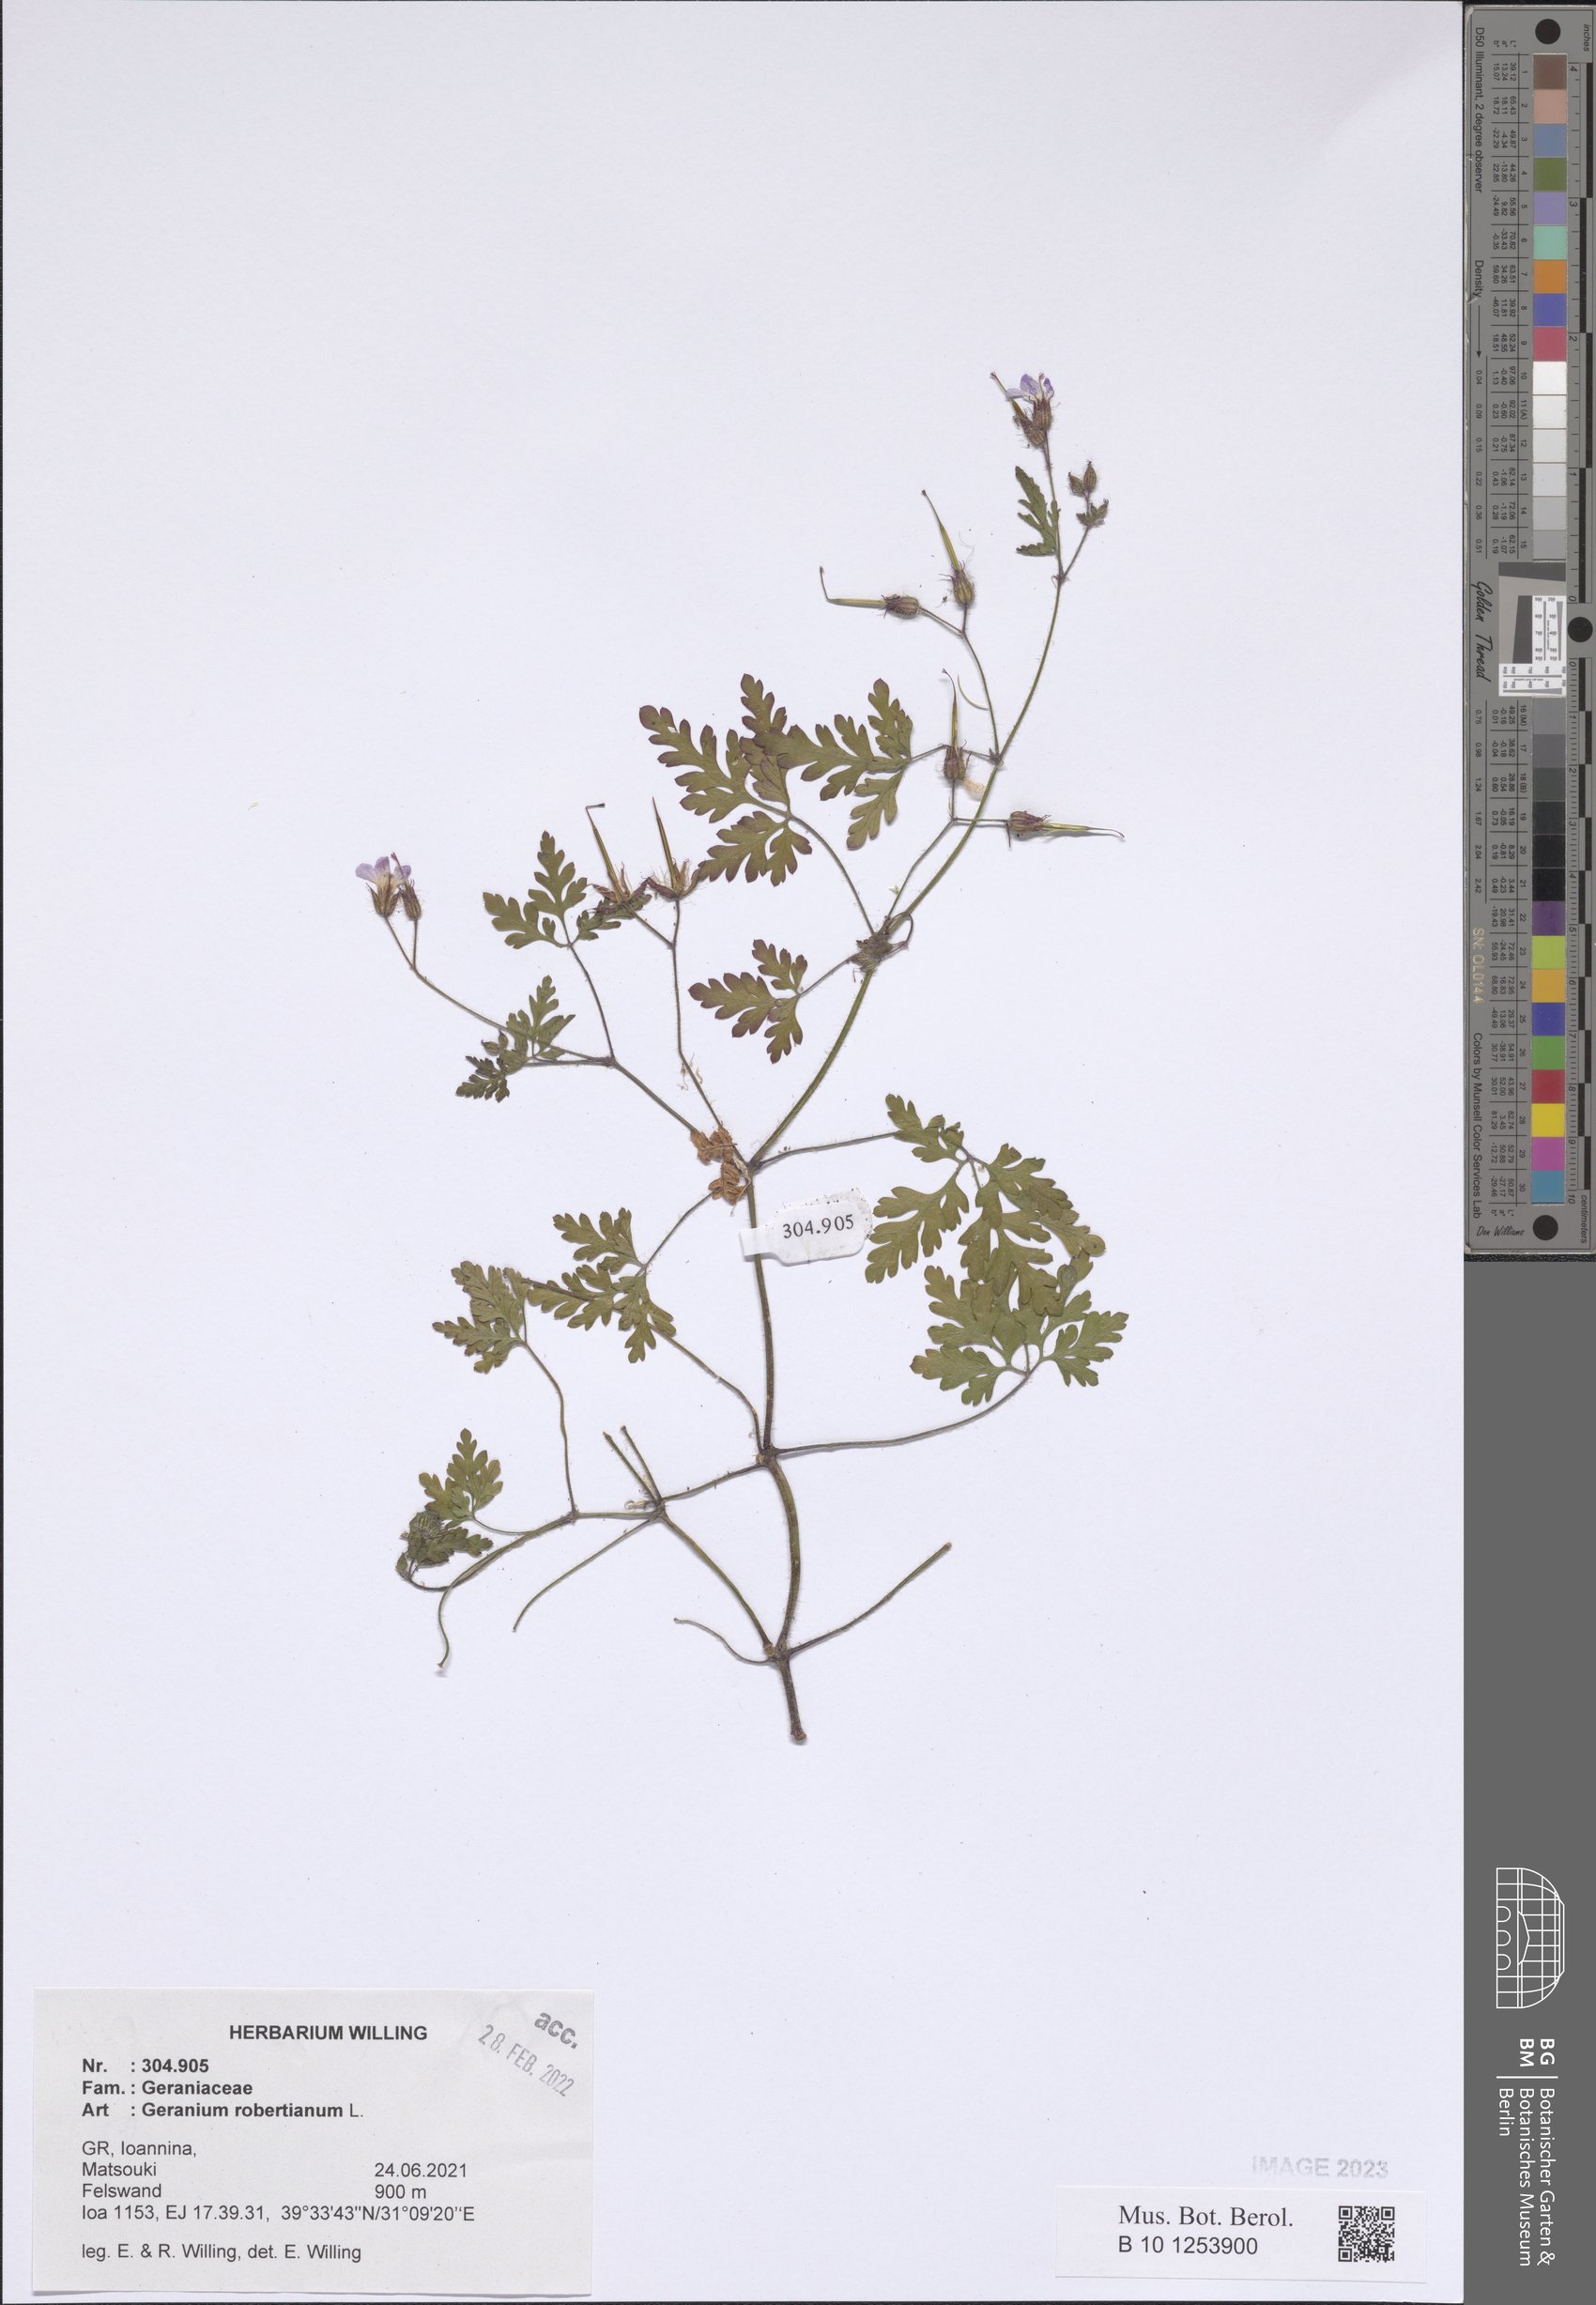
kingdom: Plantae
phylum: Tracheophyta
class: Magnoliopsida
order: Geraniales
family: Geraniaceae
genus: Geranium
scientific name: Geranium robertianum
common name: Herb-robert
